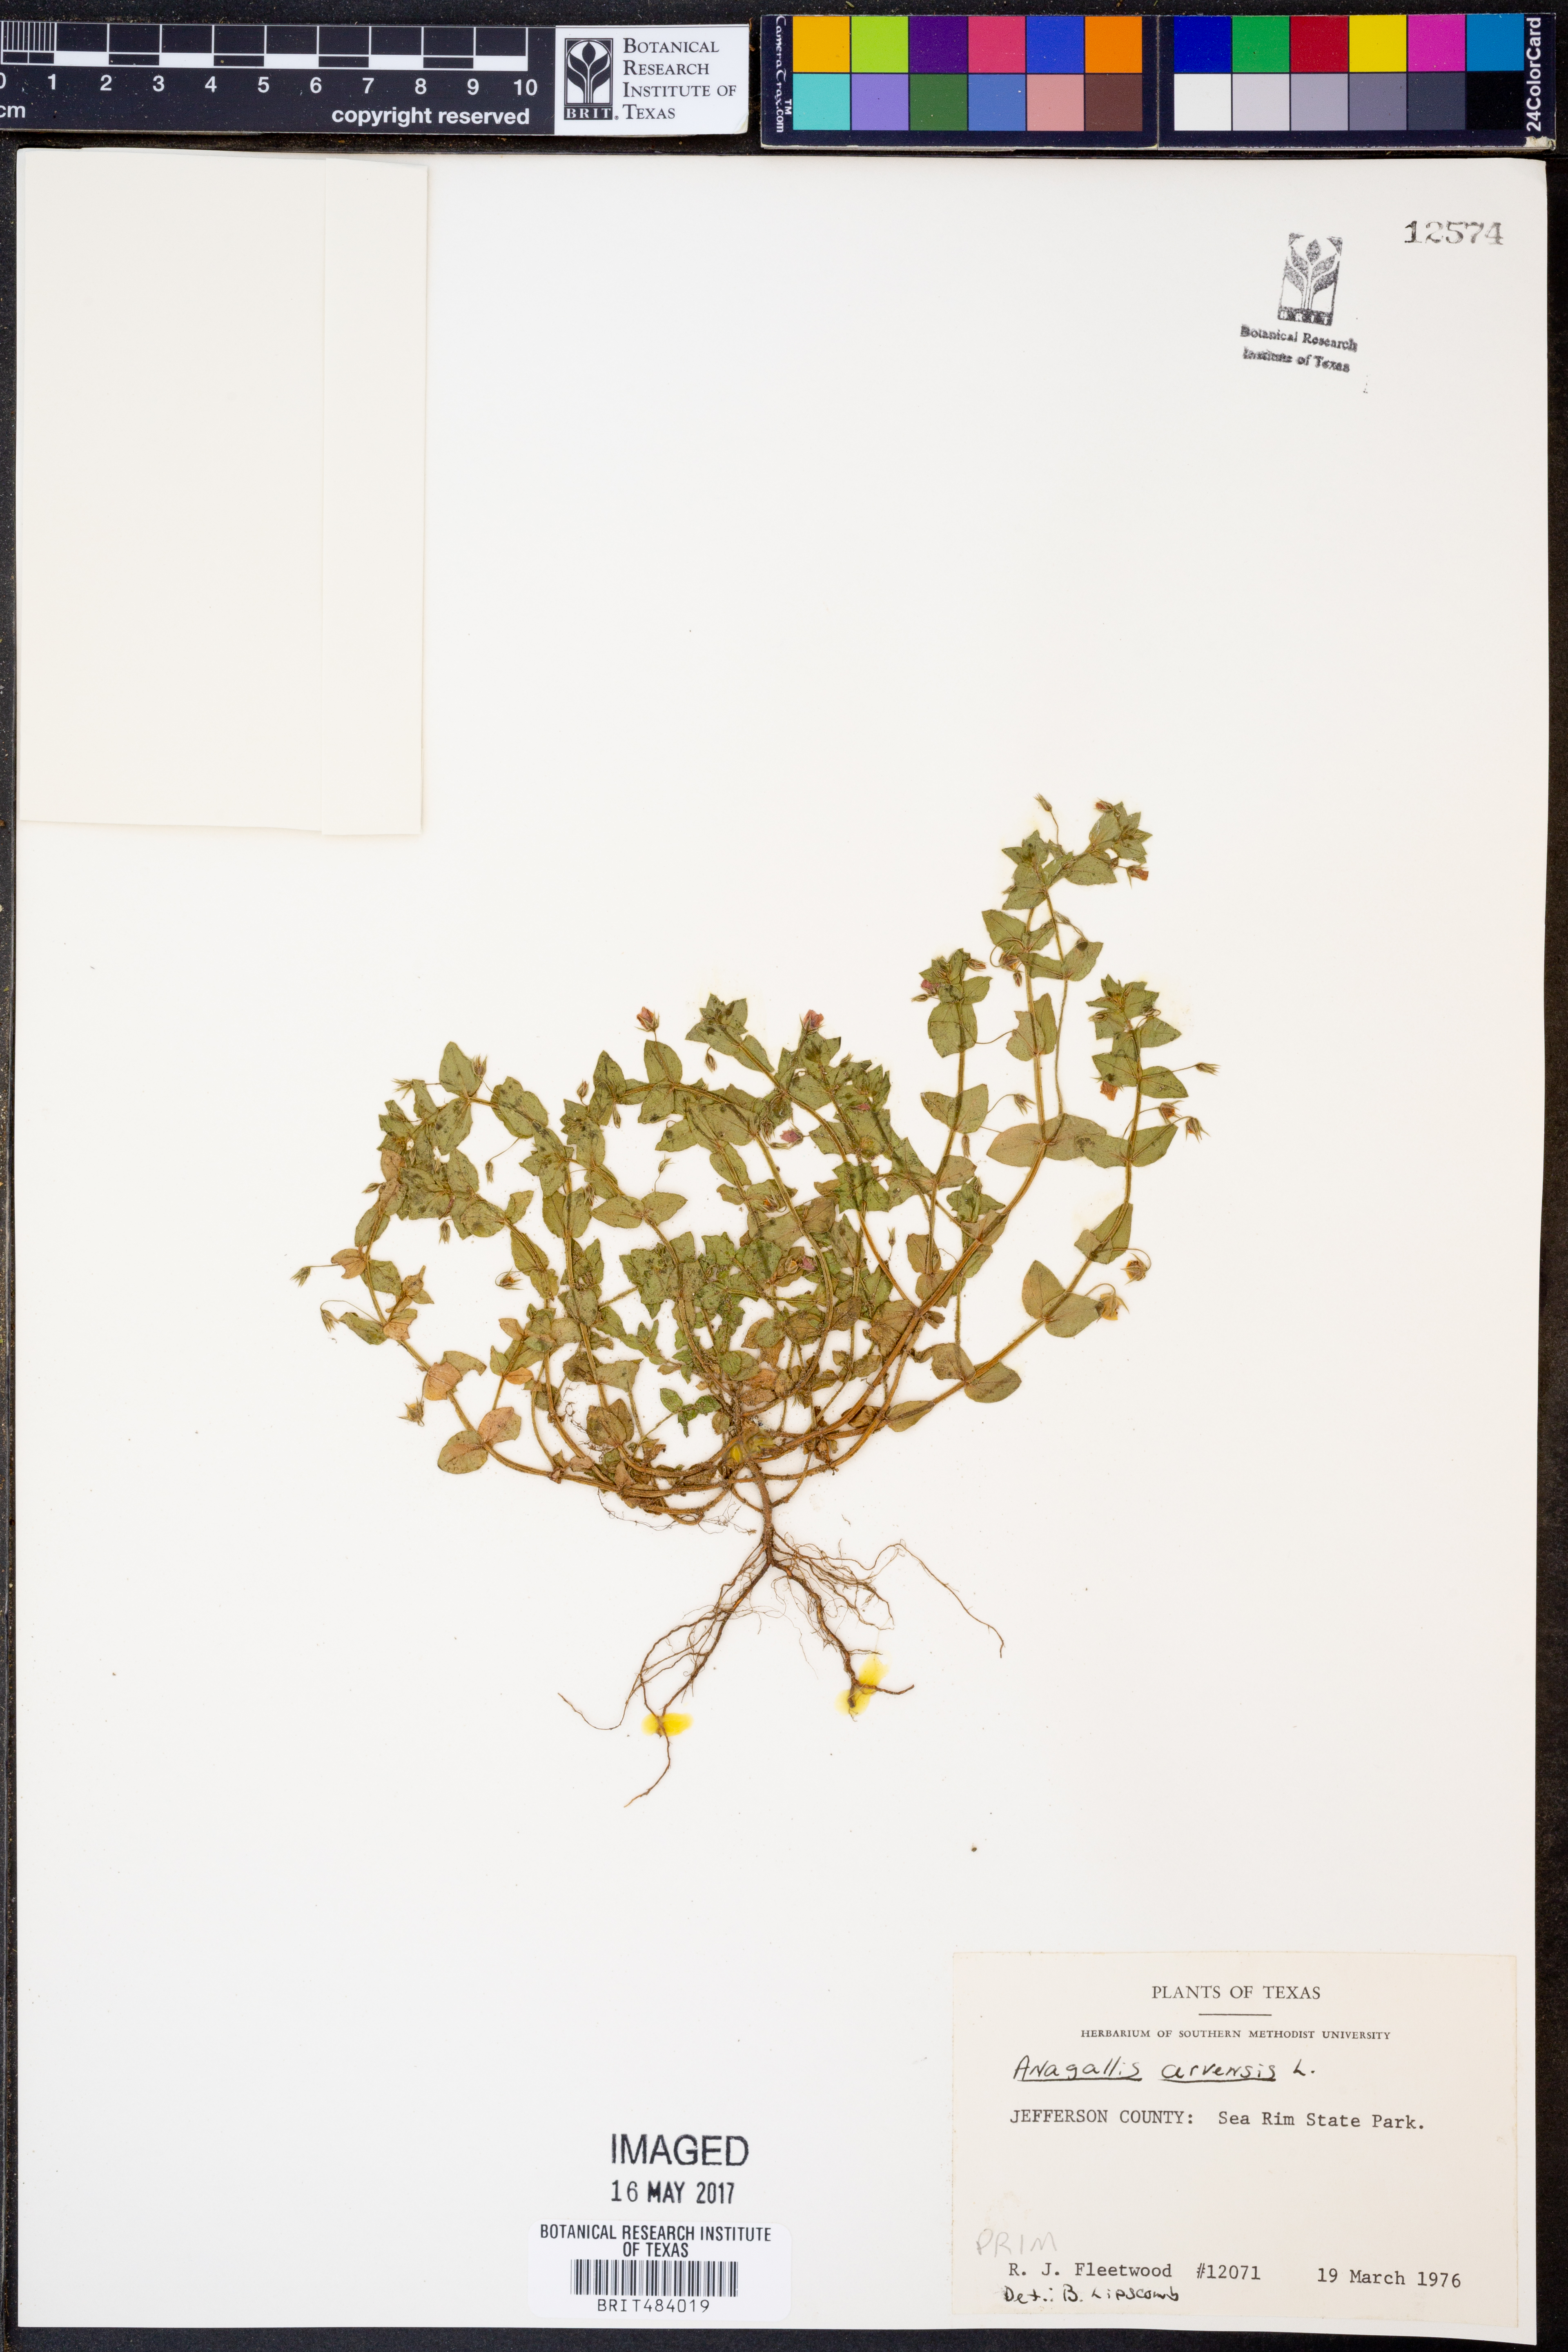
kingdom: Plantae
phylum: Tracheophyta
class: Magnoliopsida
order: Ericales
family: Primulaceae
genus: Lysimachia
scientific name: Lysimachia arvensis
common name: Scarlet pimpernel
